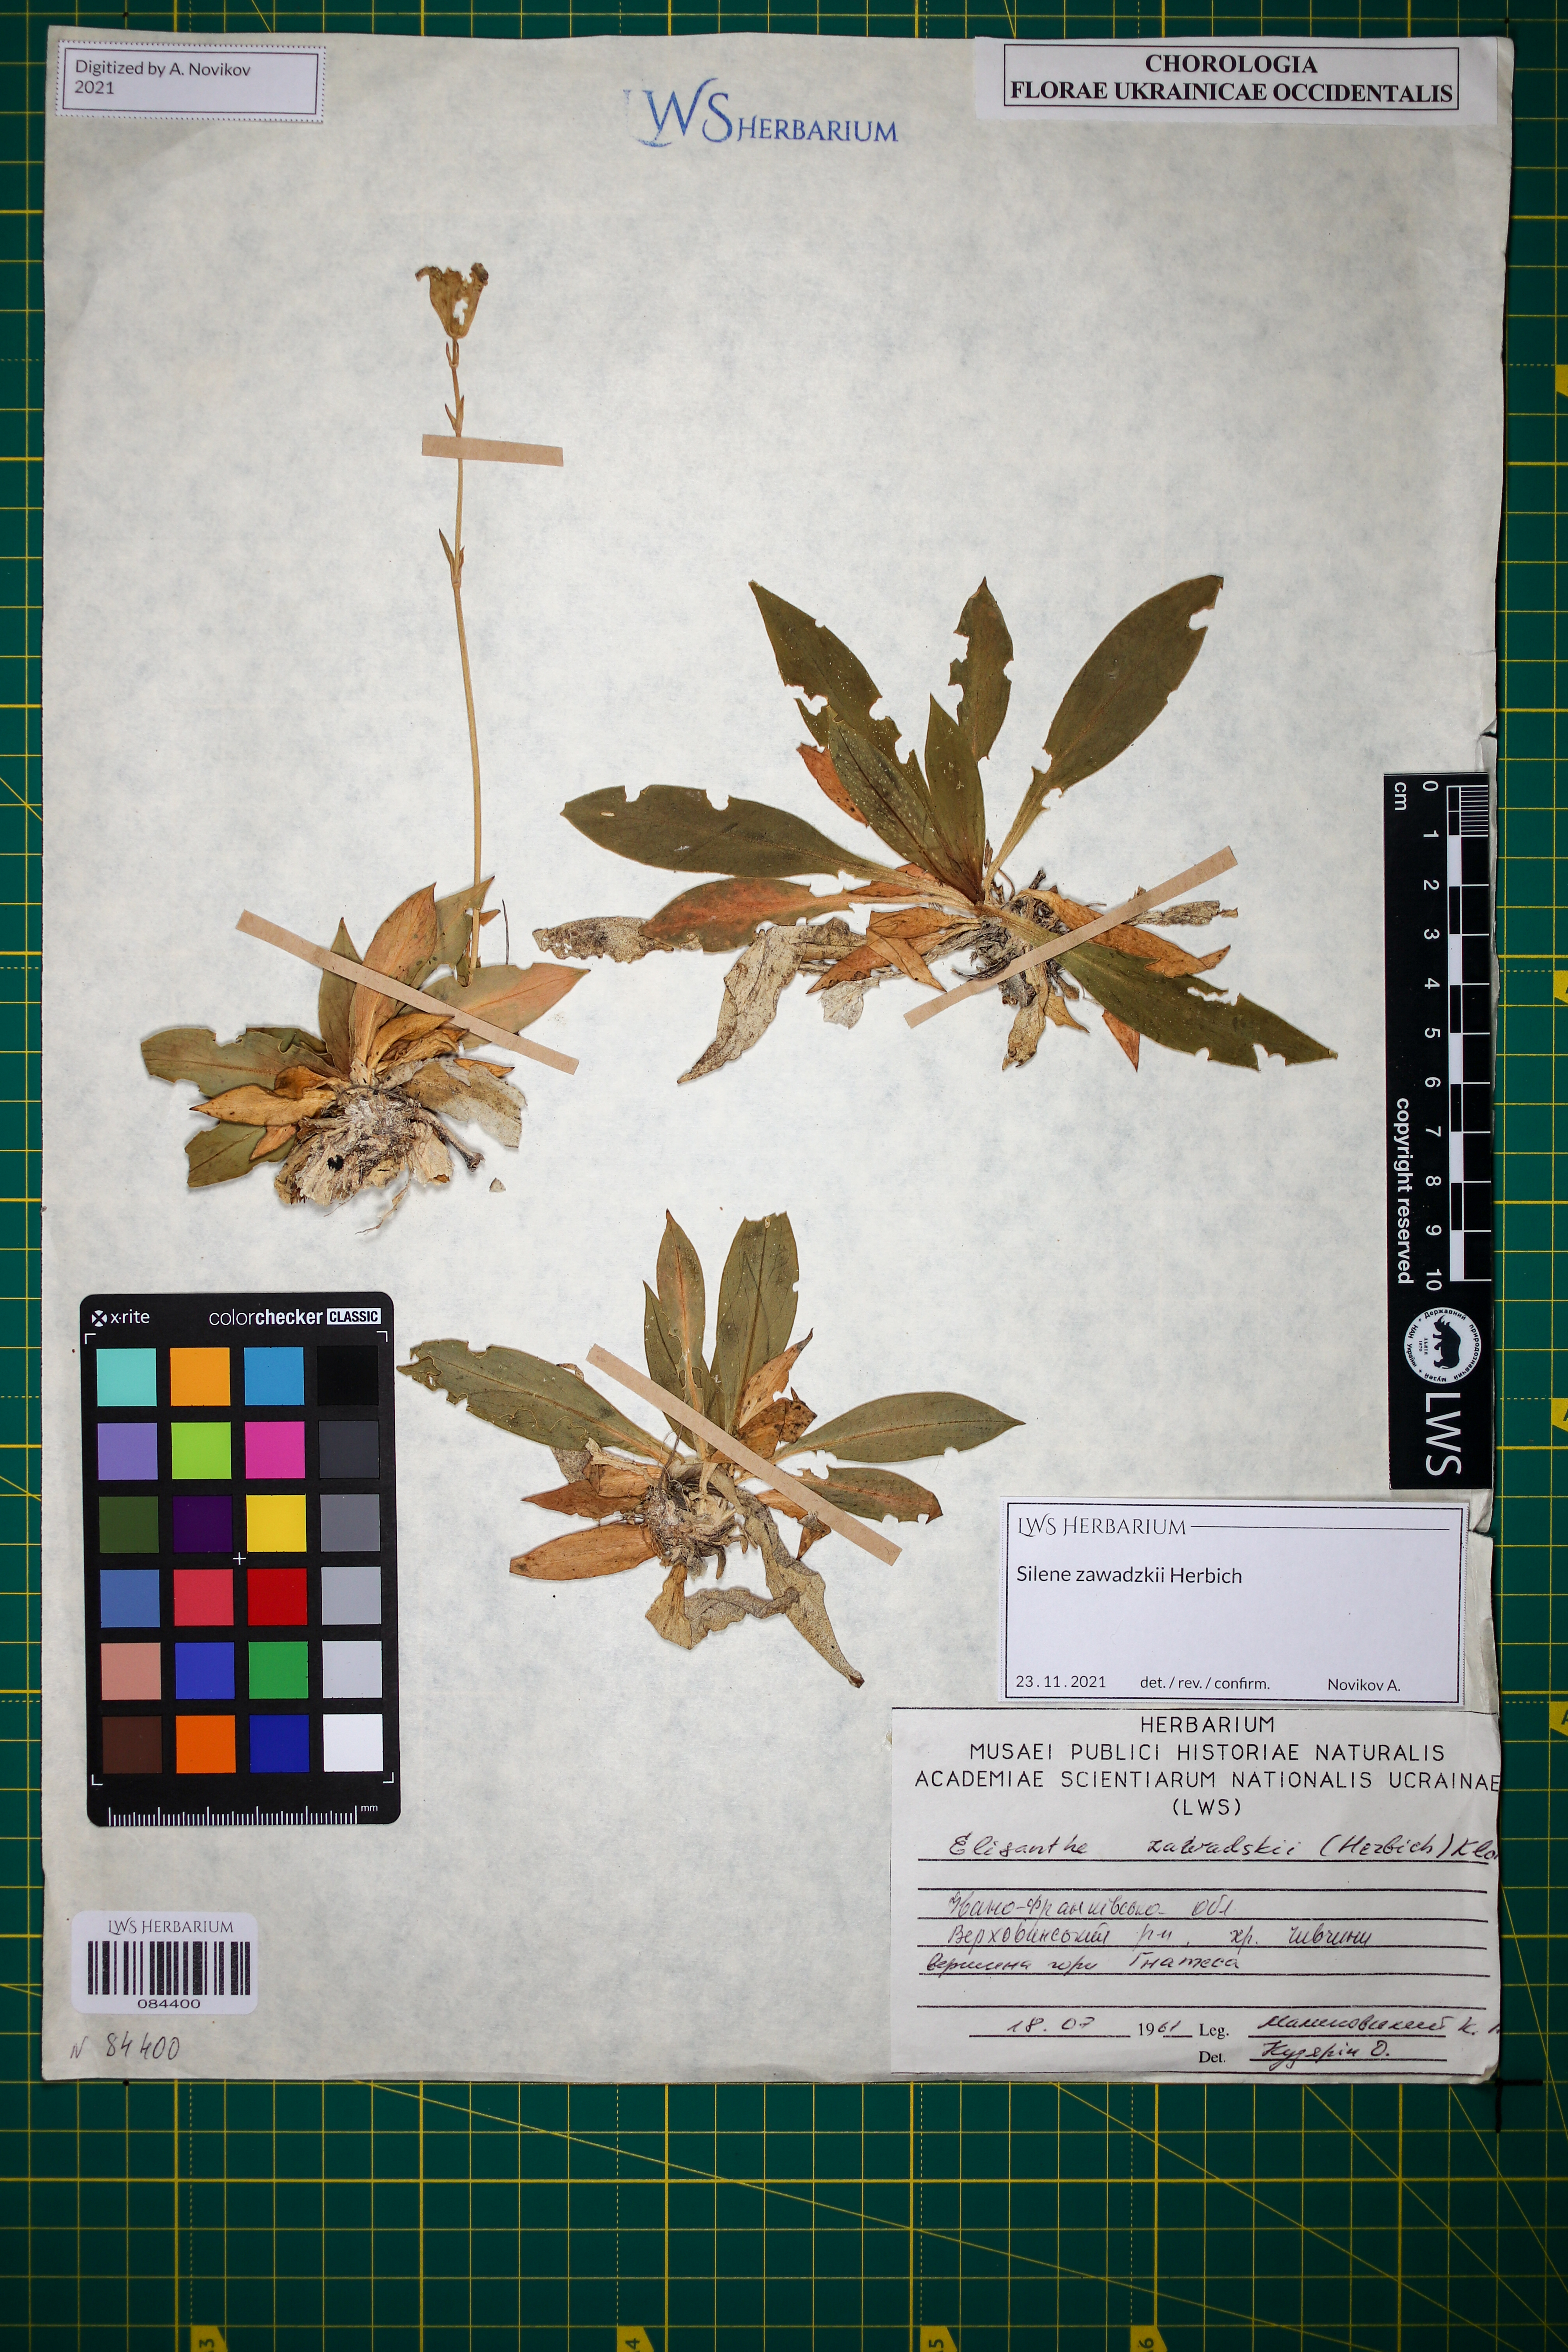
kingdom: Plantae
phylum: Tracheophyta
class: Magnoliopsida
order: Caryophyllales
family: Caryophyllaceae
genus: Silene
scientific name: Silene zawadzkii
